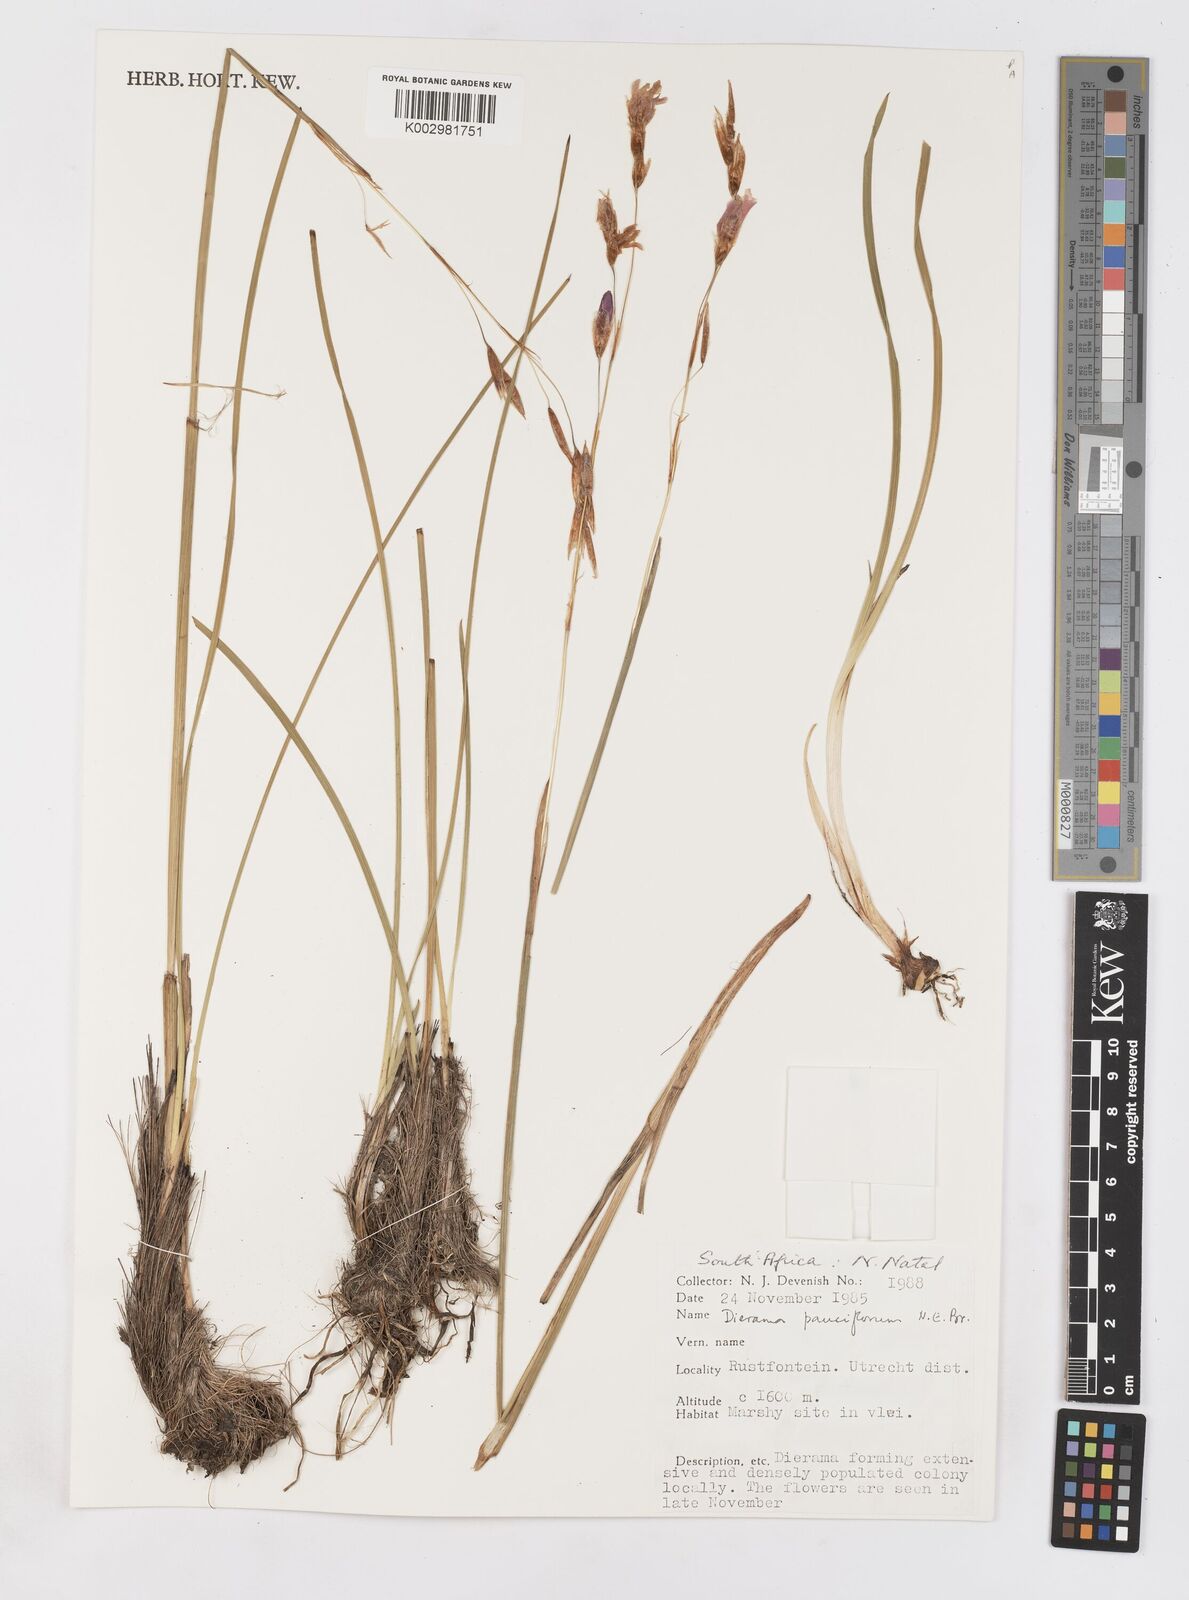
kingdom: Plantae
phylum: Tracheophyta
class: Liliopsida
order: Asparagales
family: Iridaceae
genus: Dierama
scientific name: Dierama pauciflorum
